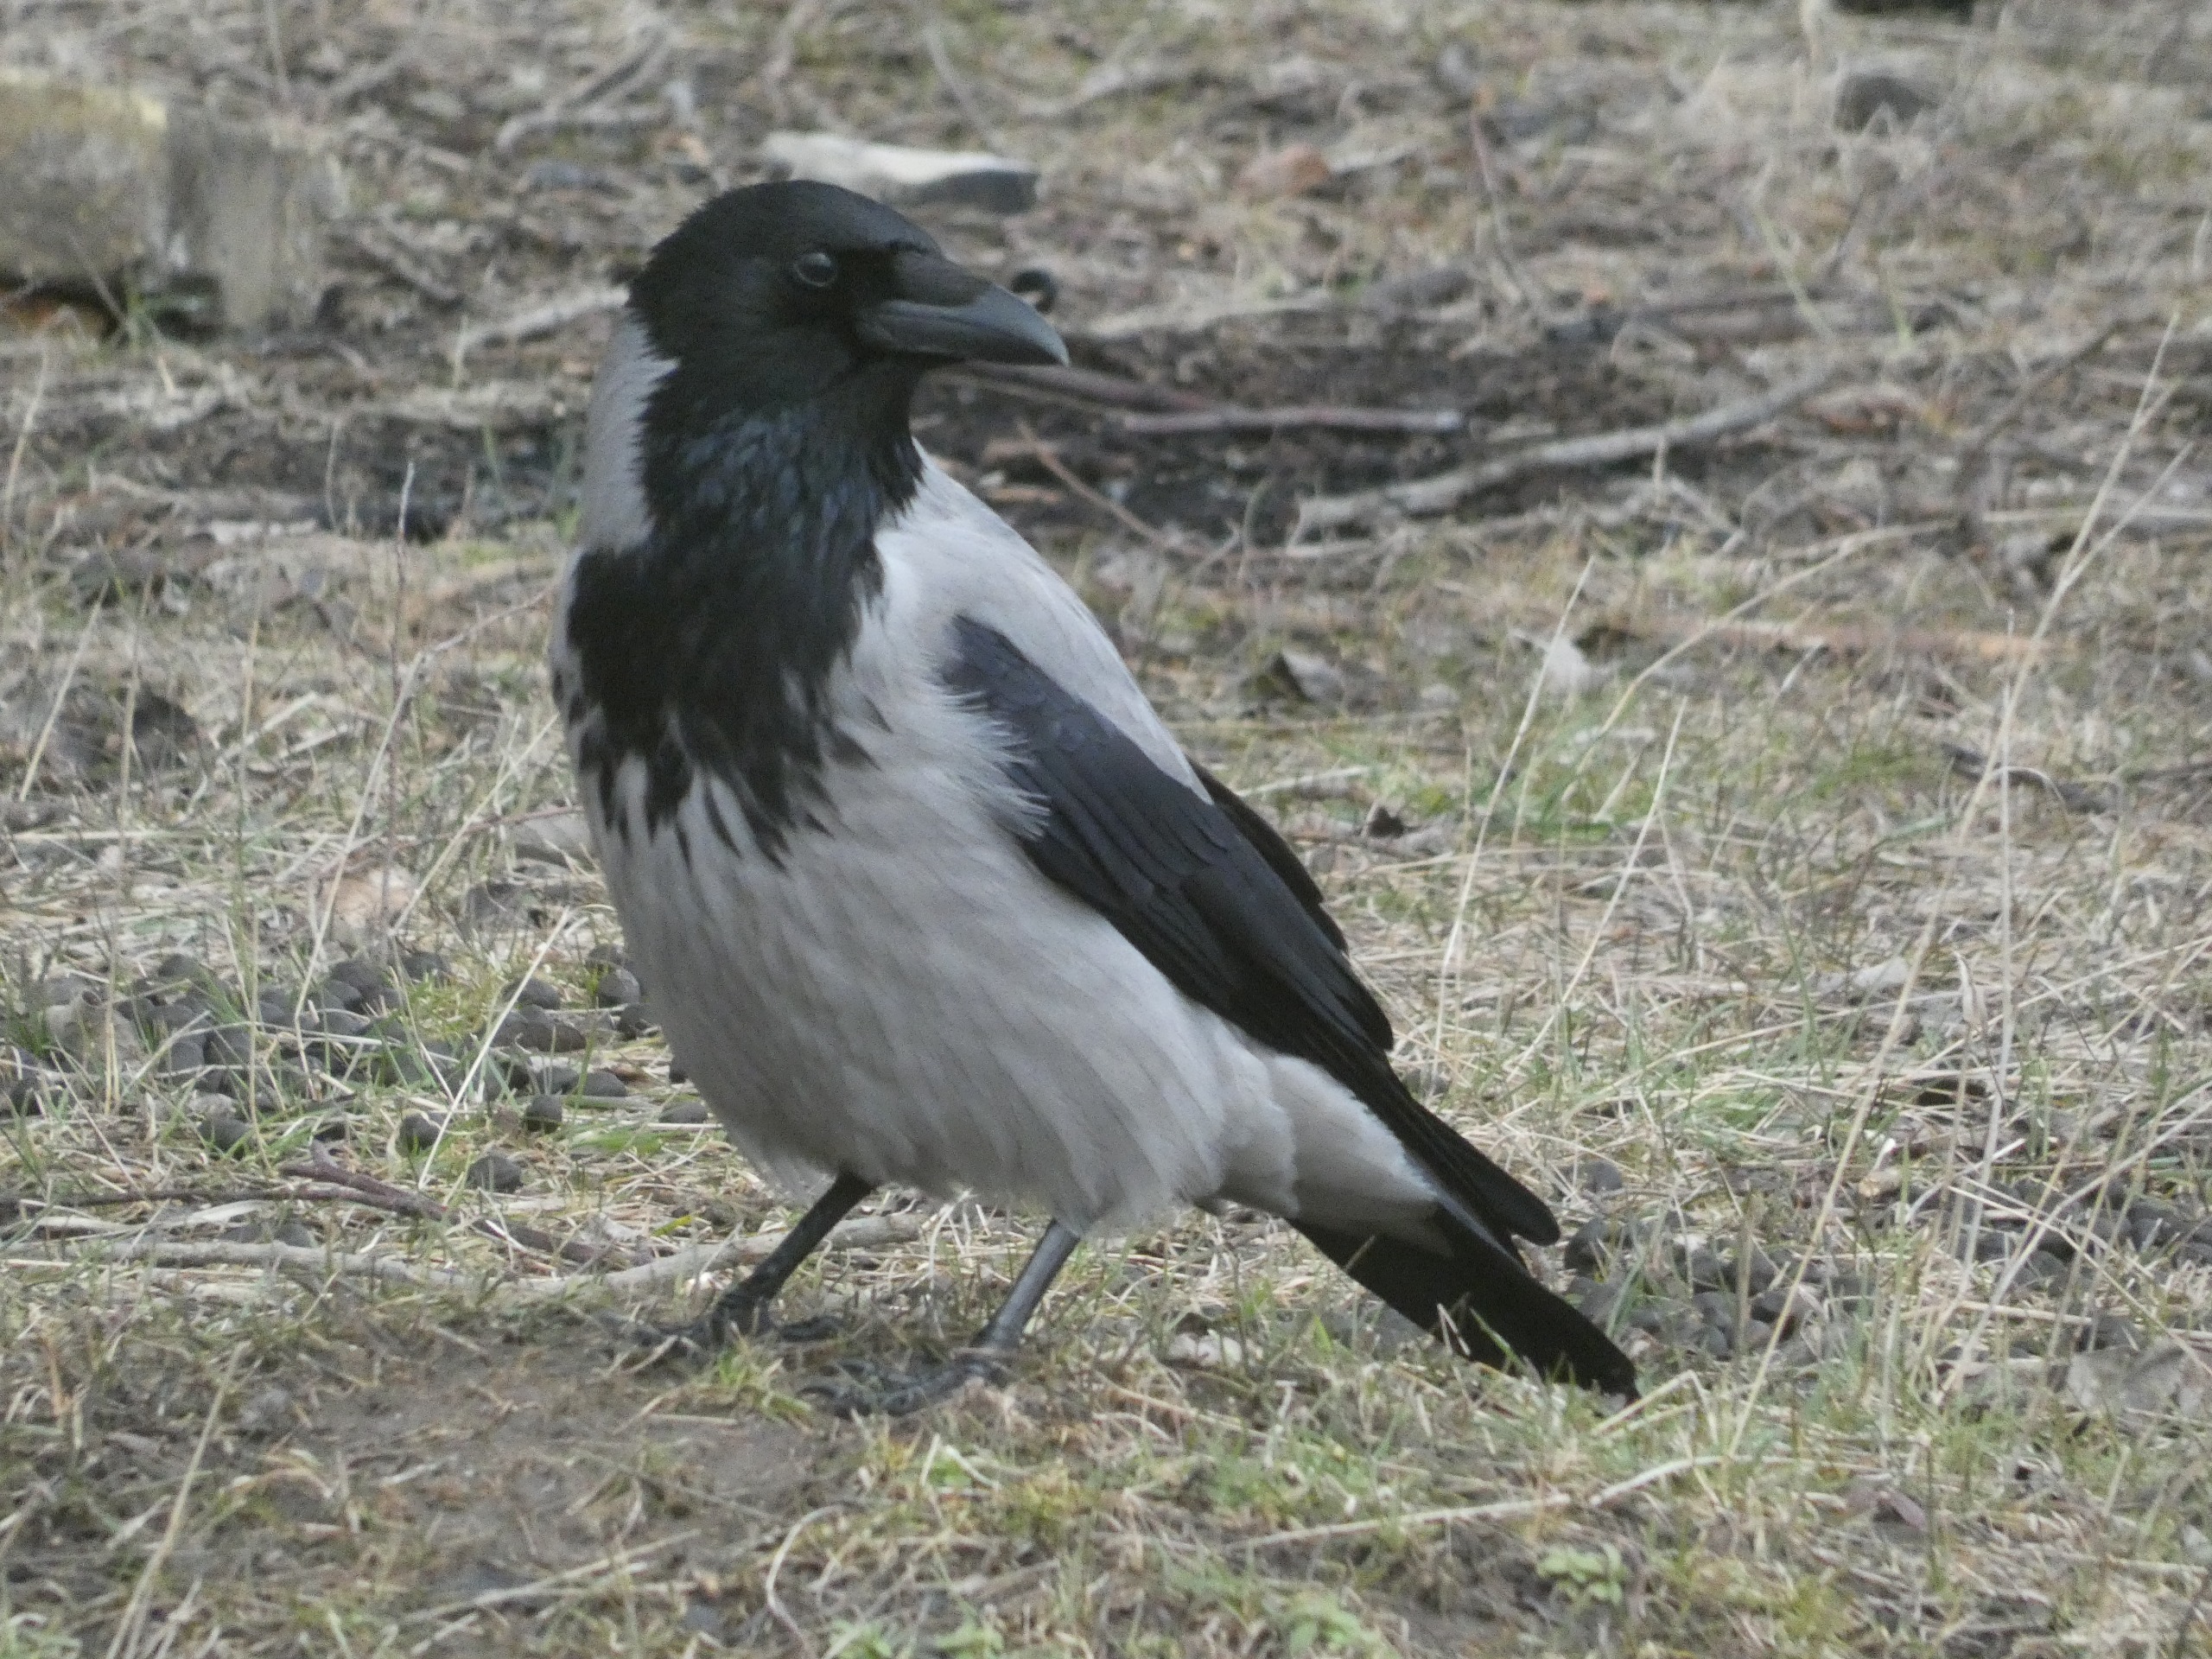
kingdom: Animalia
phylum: Chordata
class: Aves
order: Passeriformes
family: Corvidae
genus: Corvus
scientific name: Corvus cornix
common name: Gråkrage
